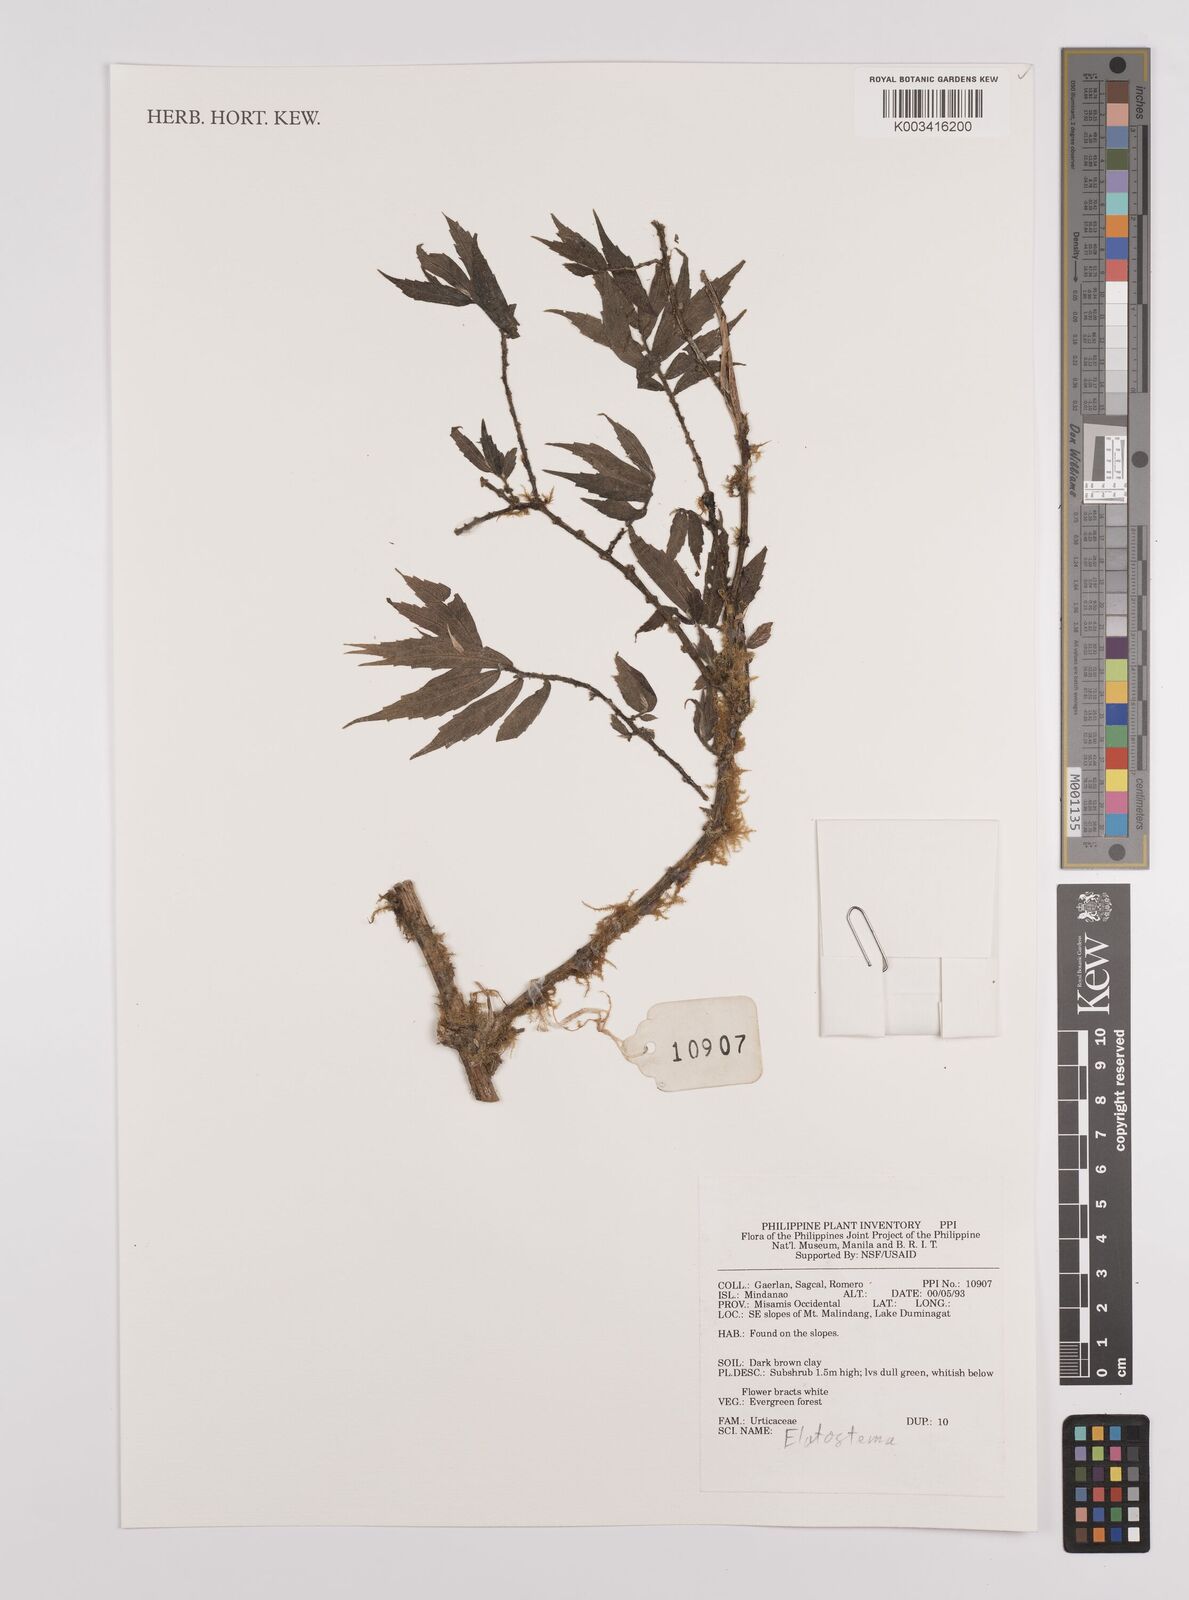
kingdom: Plantae
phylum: Tracheophyta
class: Magnoliopsida
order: Rosales
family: Urticaceae
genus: Elatostema
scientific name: Elatostema
